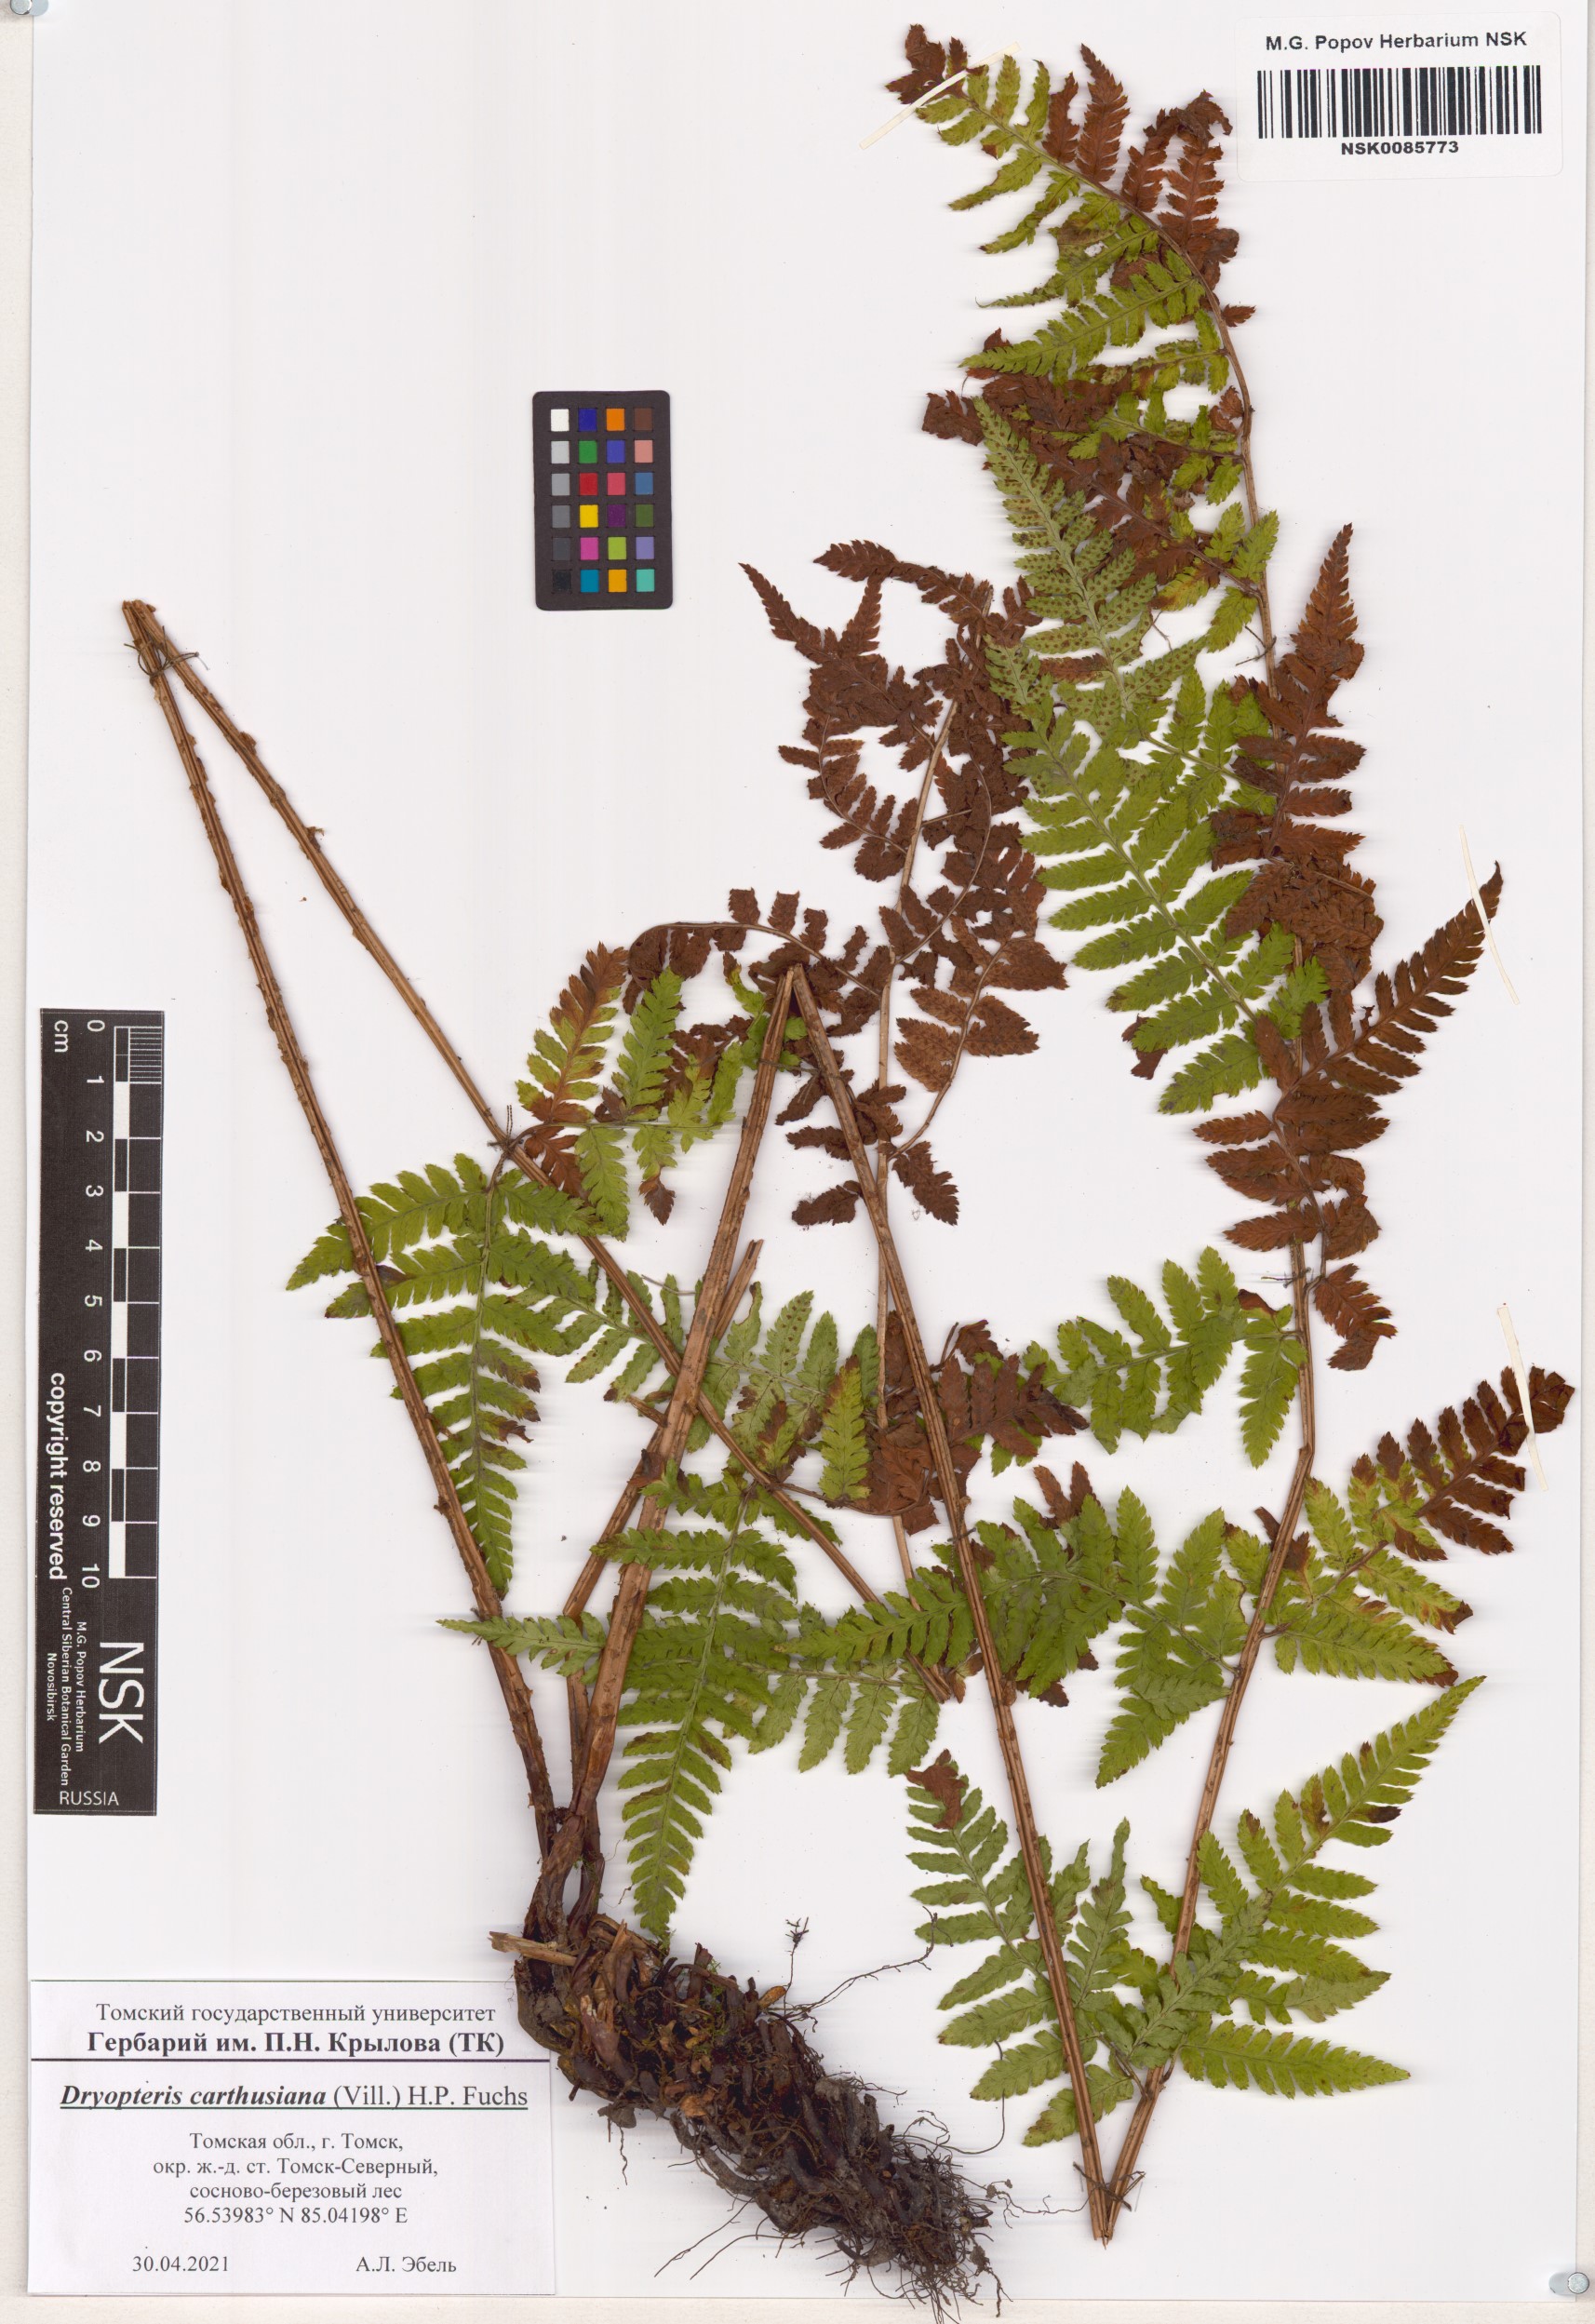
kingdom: Plantae
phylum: Tracheophyta
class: Polypodiopsida
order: Polypodiales
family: Dryopteridaceae
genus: Dryopteris
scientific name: Dryopteris carthusiana
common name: Narrow buckler-fern
